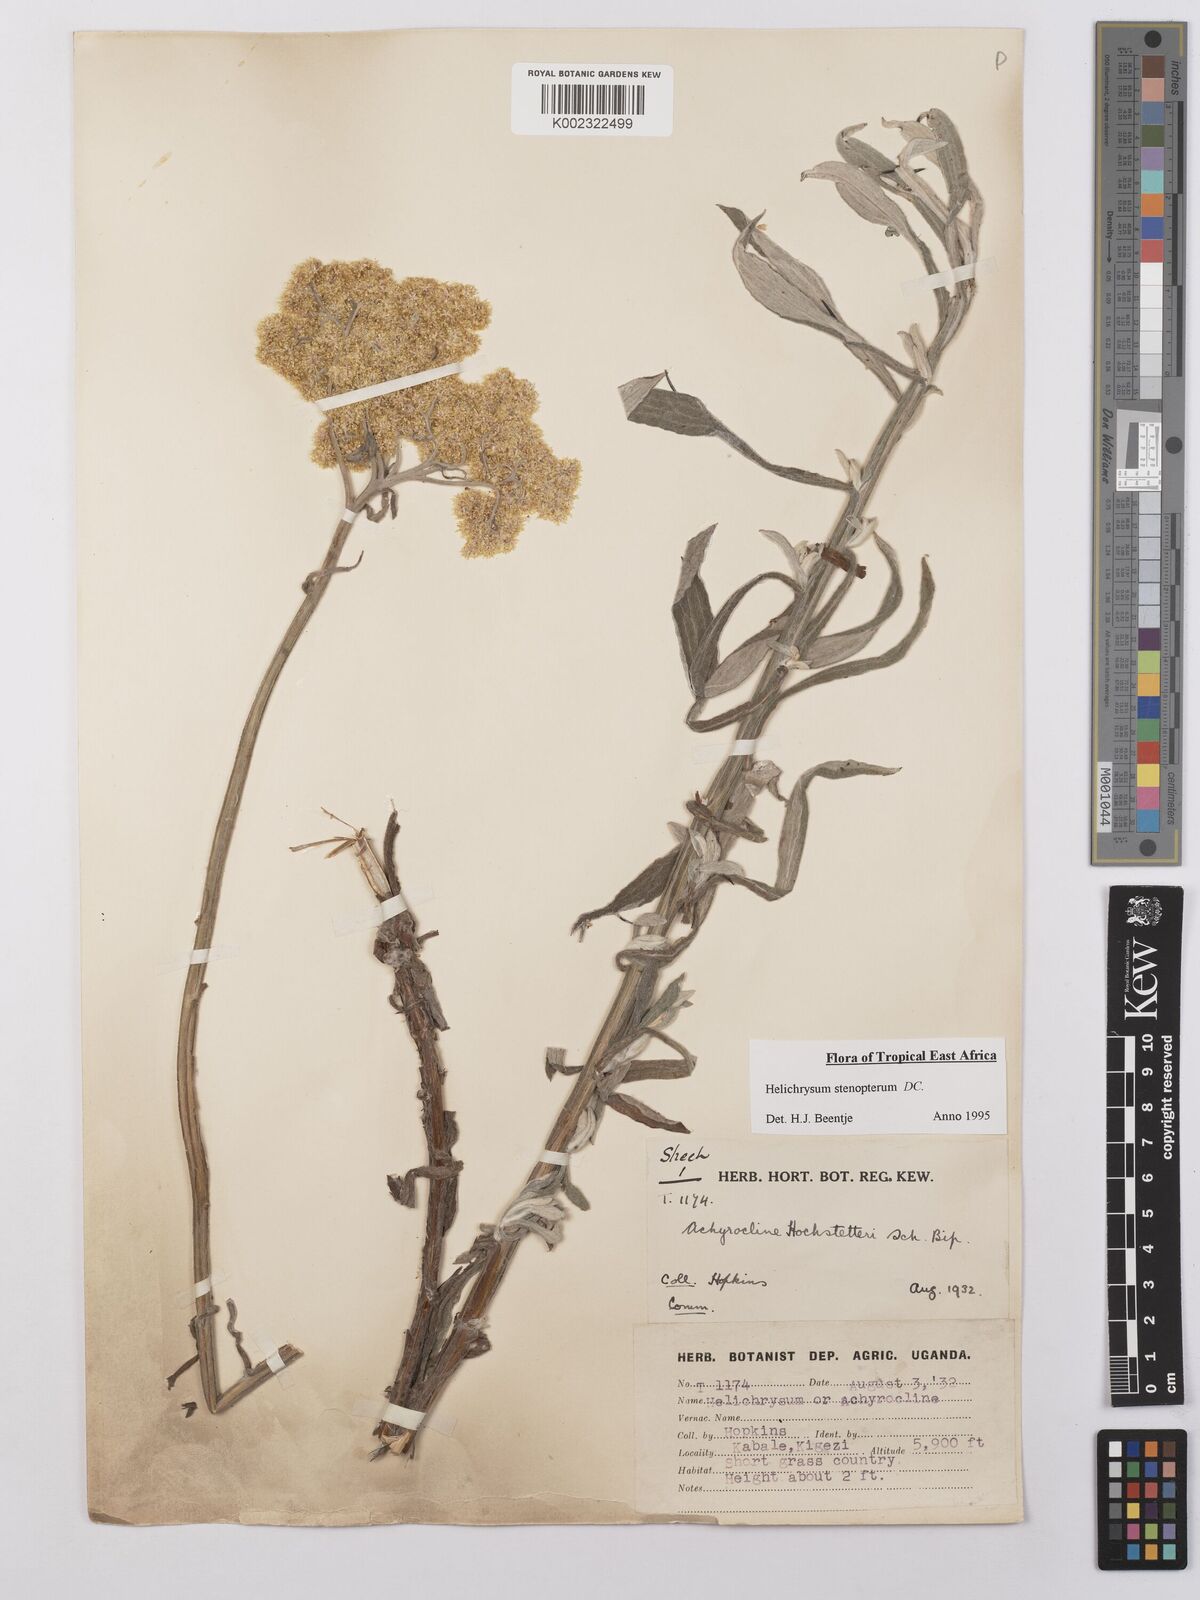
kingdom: Plantae
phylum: Tracheophyta
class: Magnoliopsida
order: Asterales
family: Asteraceae
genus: Helichrysum
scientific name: Helichrysum stenopterum
